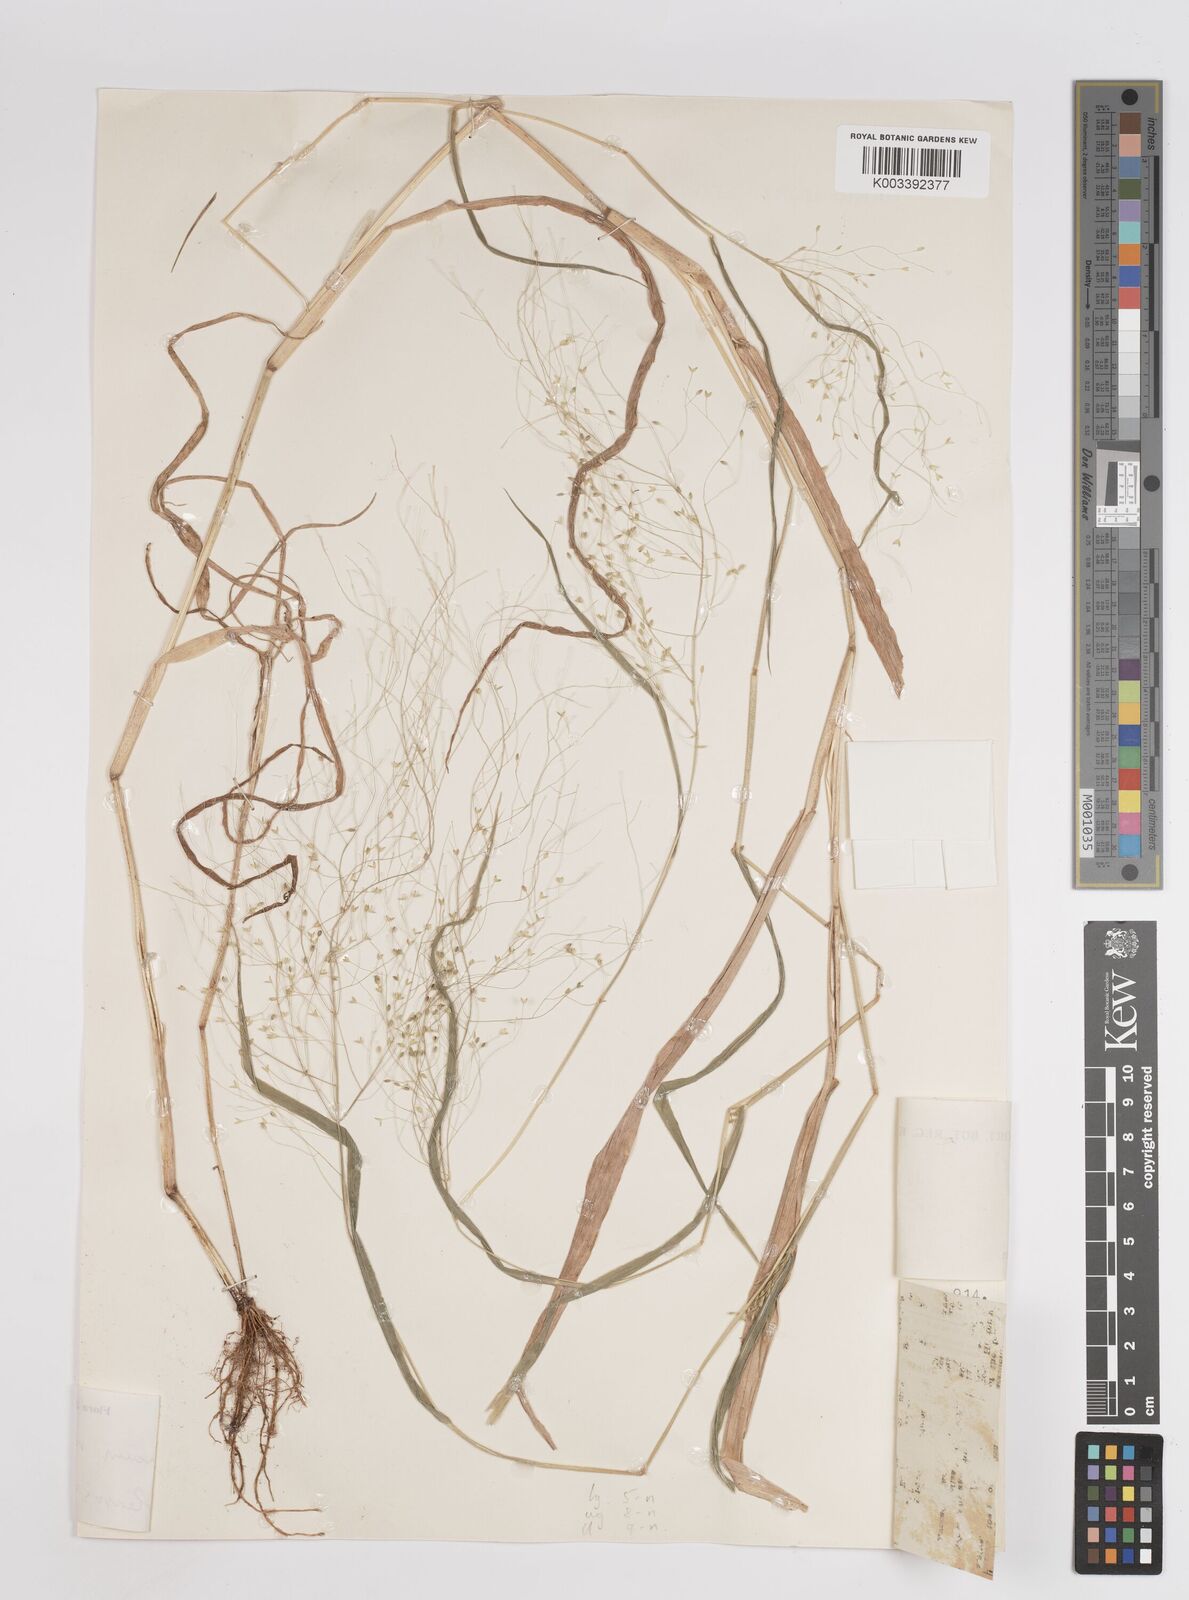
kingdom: Plantae
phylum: Tracheophyta
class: Liliopsida
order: Poales
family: Poaceae
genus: Panicum
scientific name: Panicum novemnerve
